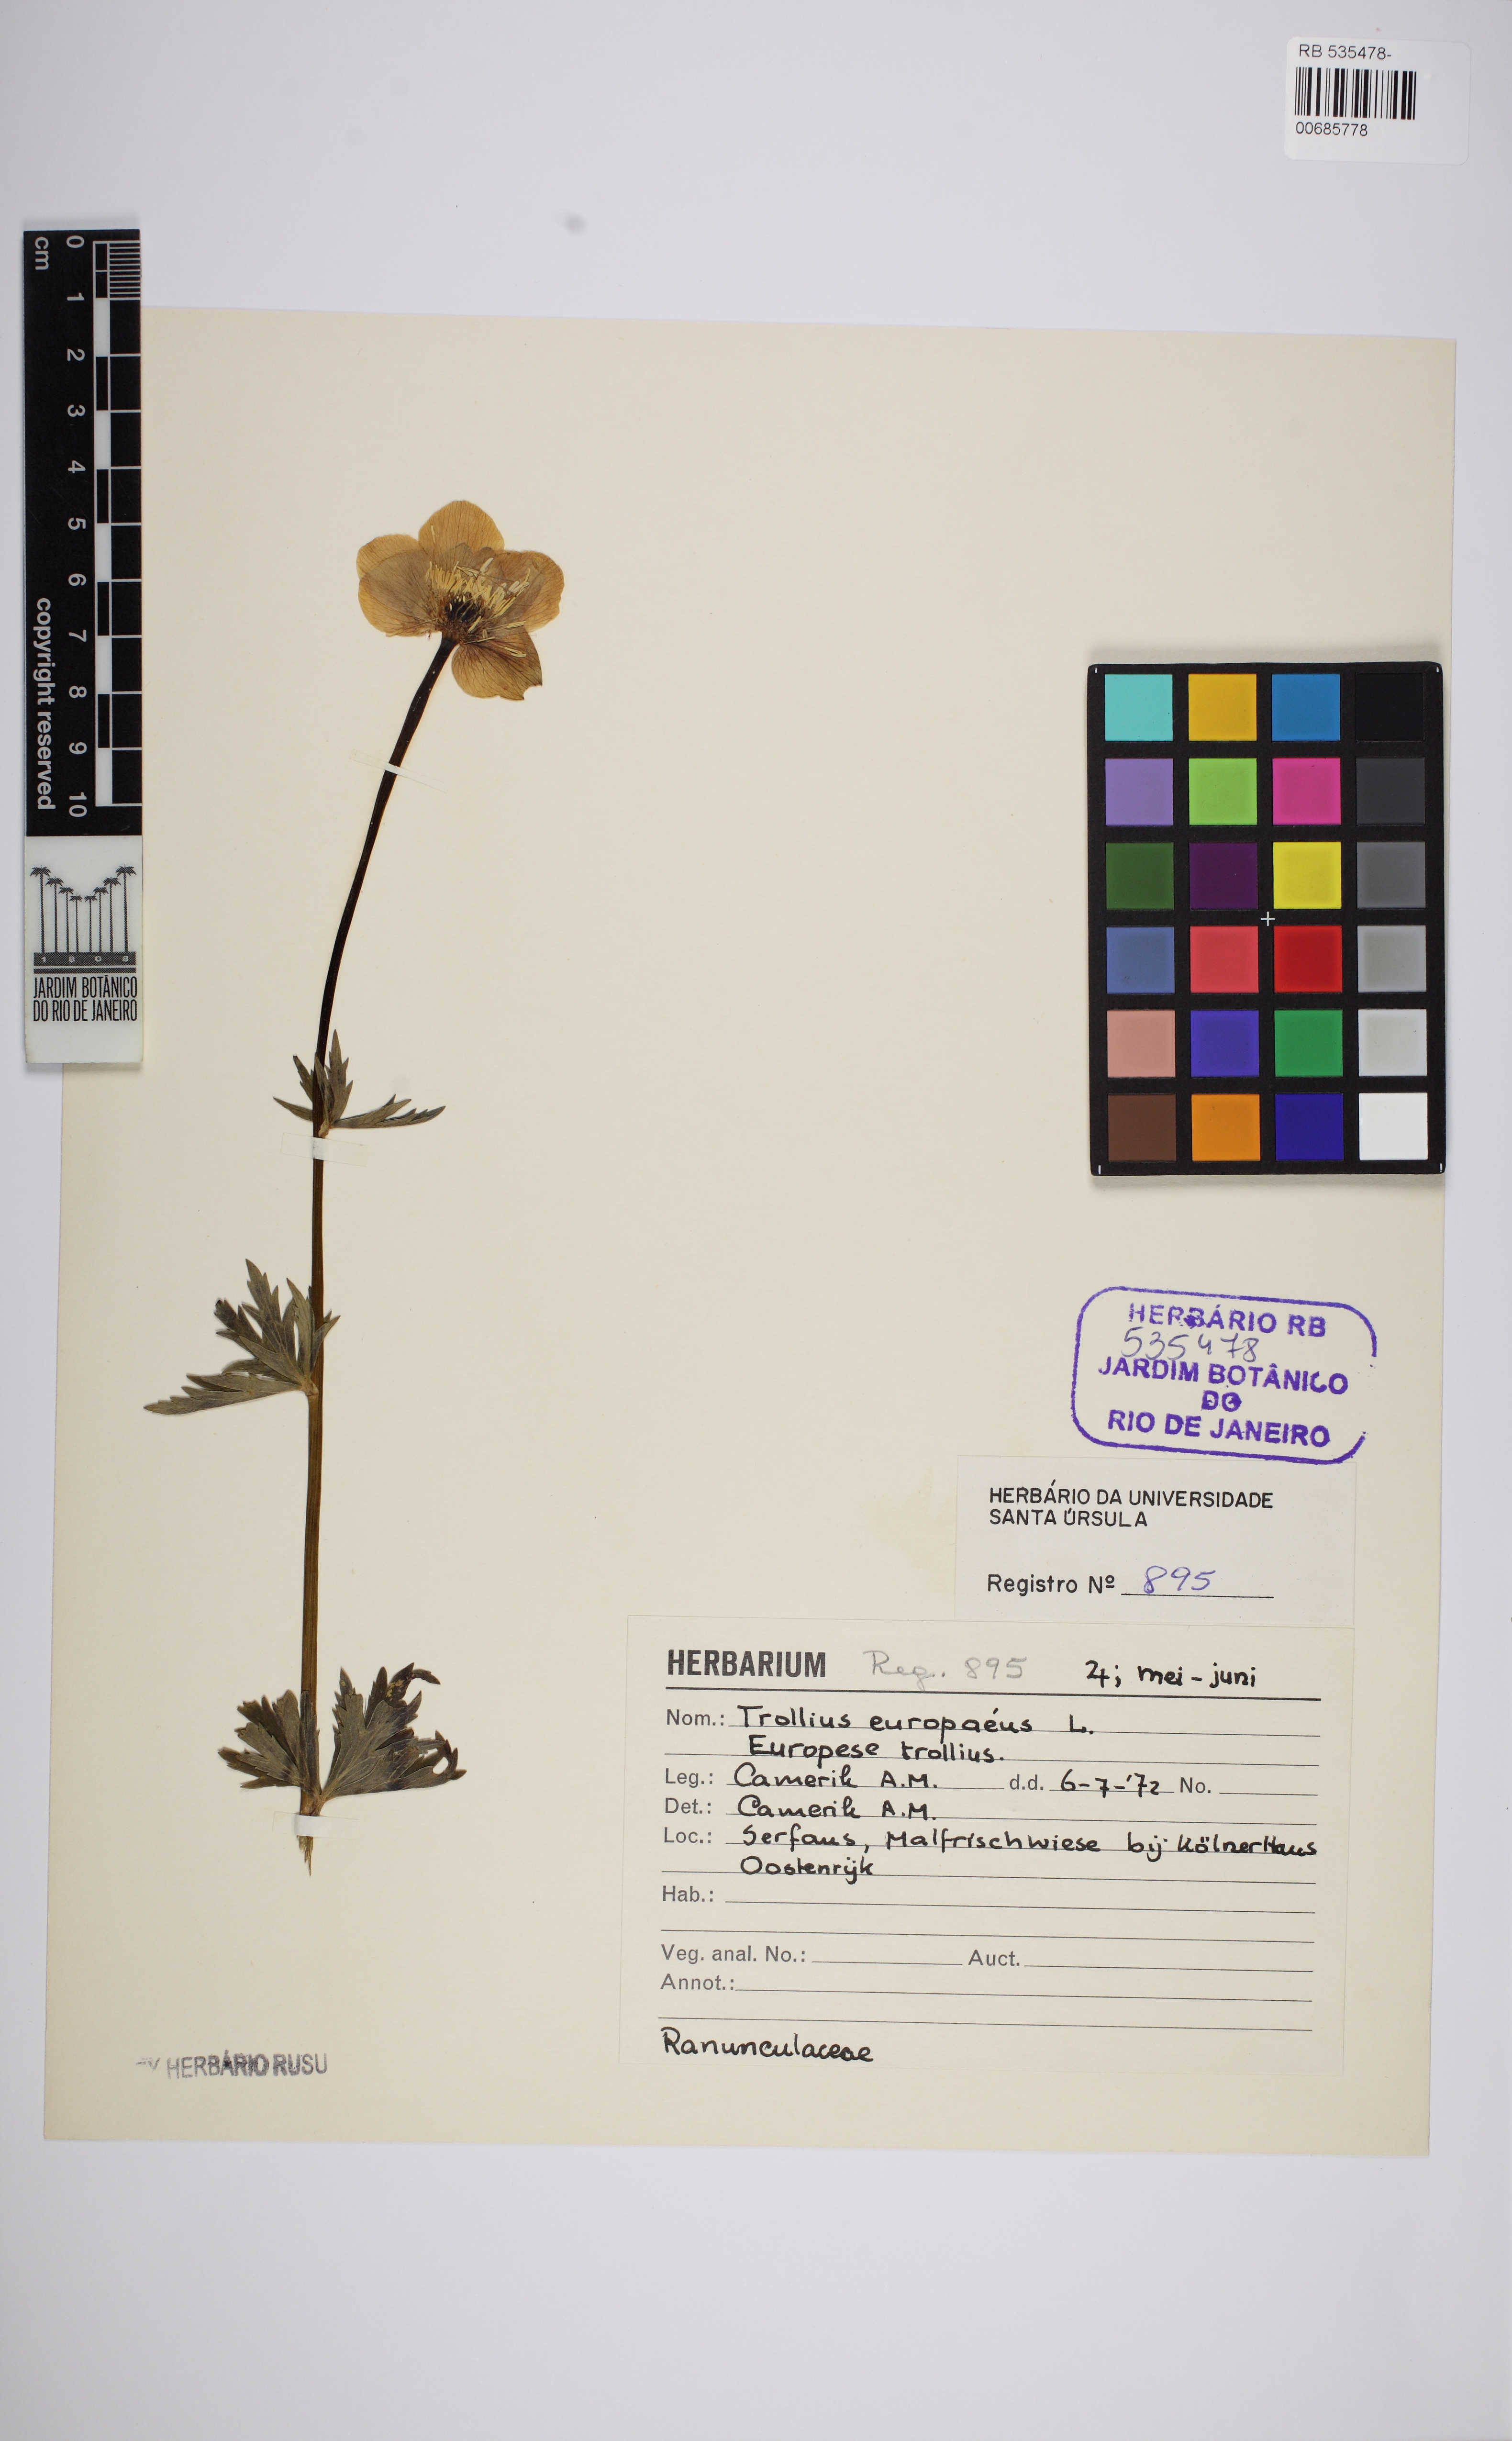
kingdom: Plantae
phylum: Tracheophyta
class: Magnoliopsida
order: Ranunculales
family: Ranunculaceae
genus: Trollius
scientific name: Trollius europaeus
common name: European globeflower
